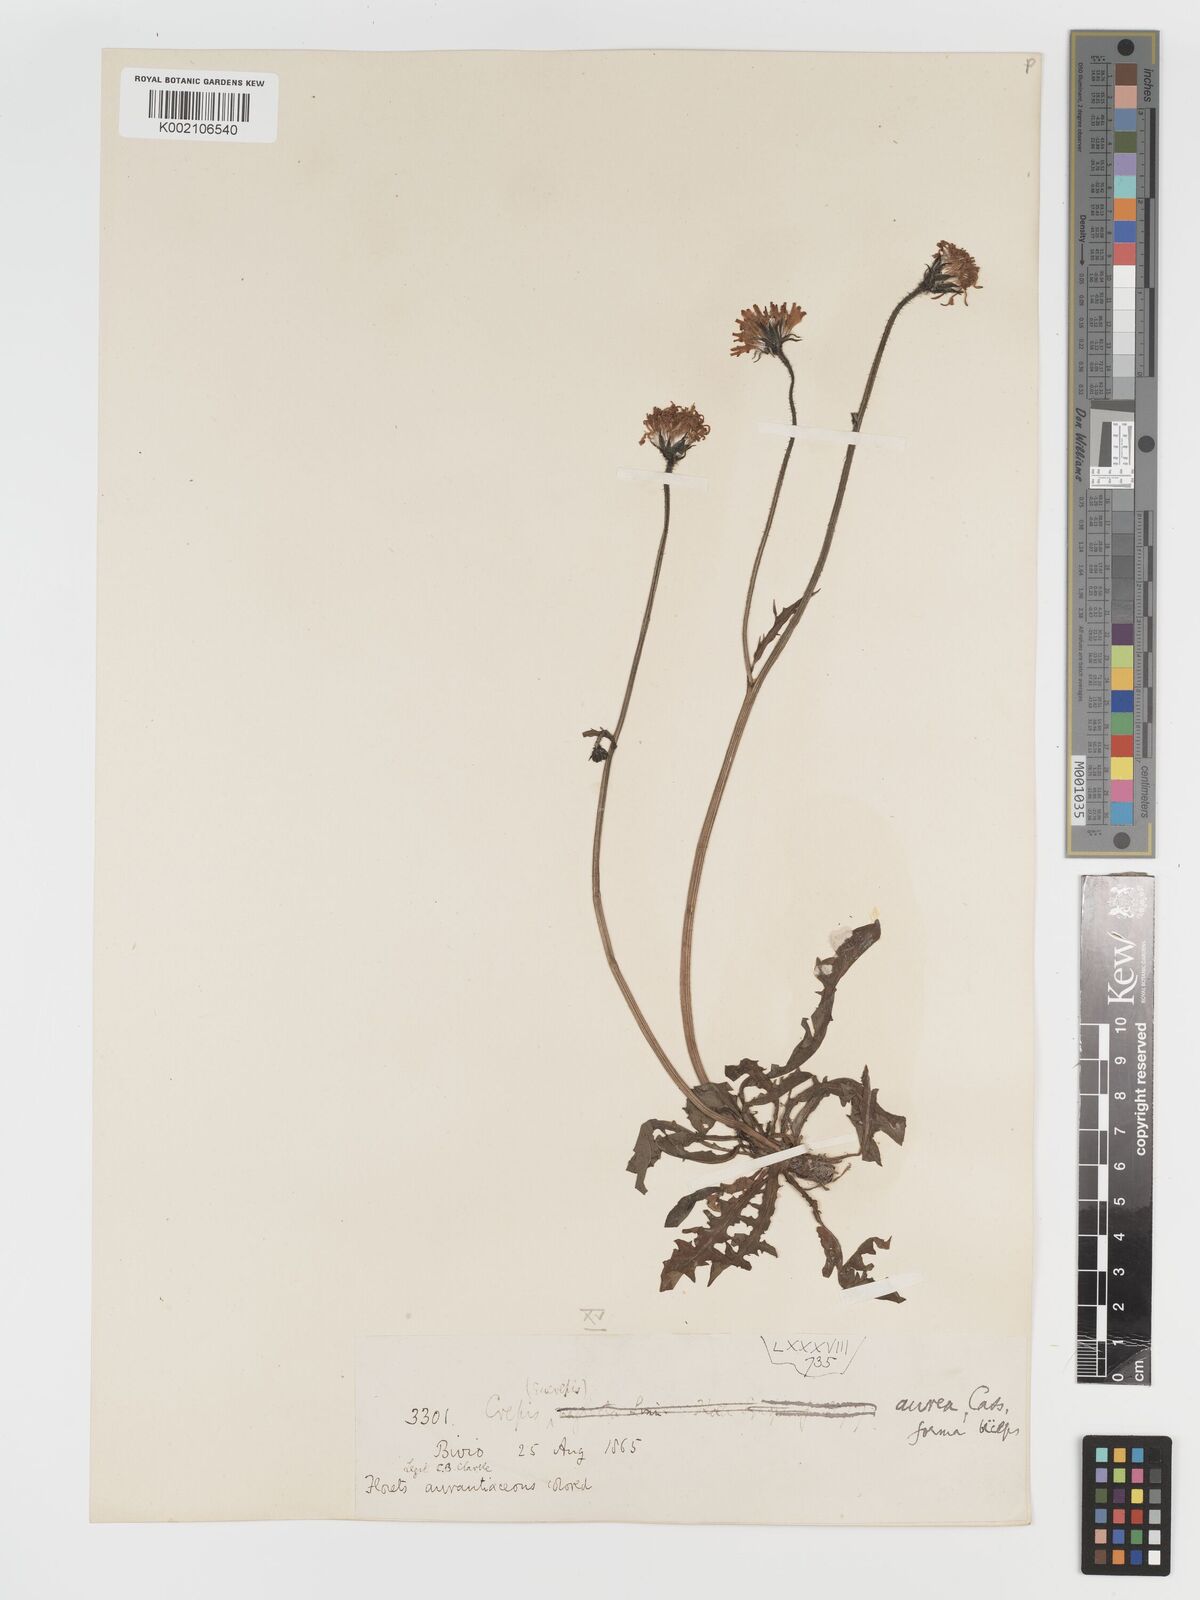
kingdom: Plantae
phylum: Tracheophyta
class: Magnoliopsida
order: Asterales
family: Asteraceae
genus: Crepis
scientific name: Crepis aurea
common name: Golden hawk's-beard
